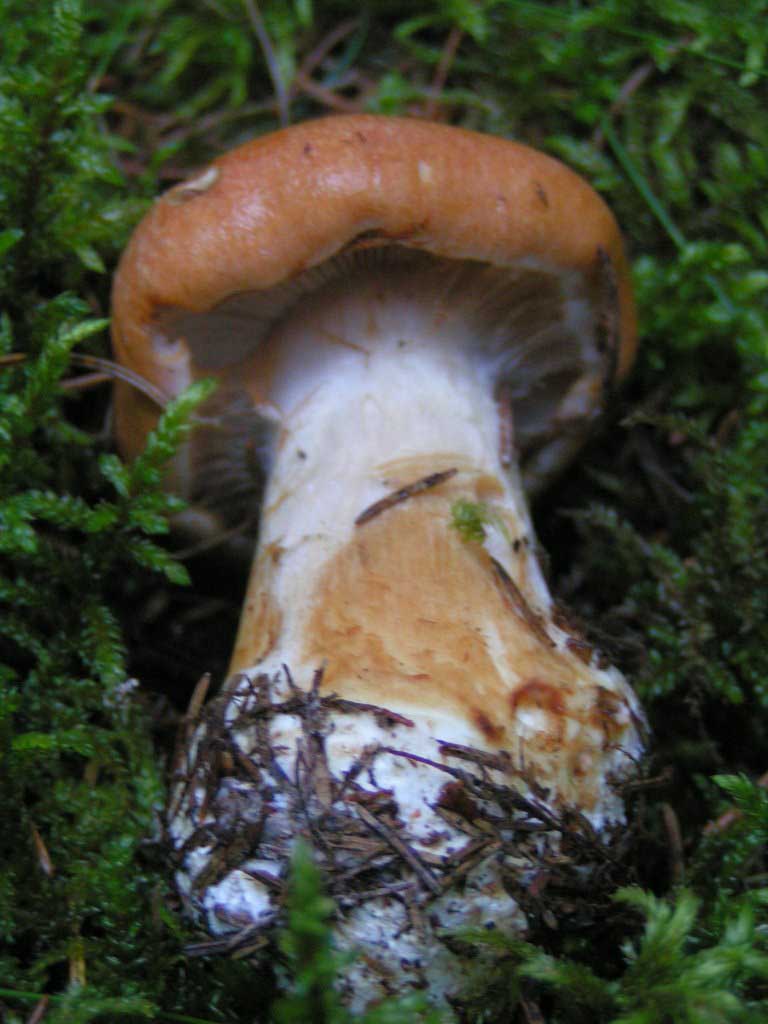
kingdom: Fungi
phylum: Basidiomycota
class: Agaricomycetes
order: Agaricales
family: Cortinariaceae
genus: Thaxterogaster
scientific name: Thaxterogaster multiformis
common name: honning-slørhat
